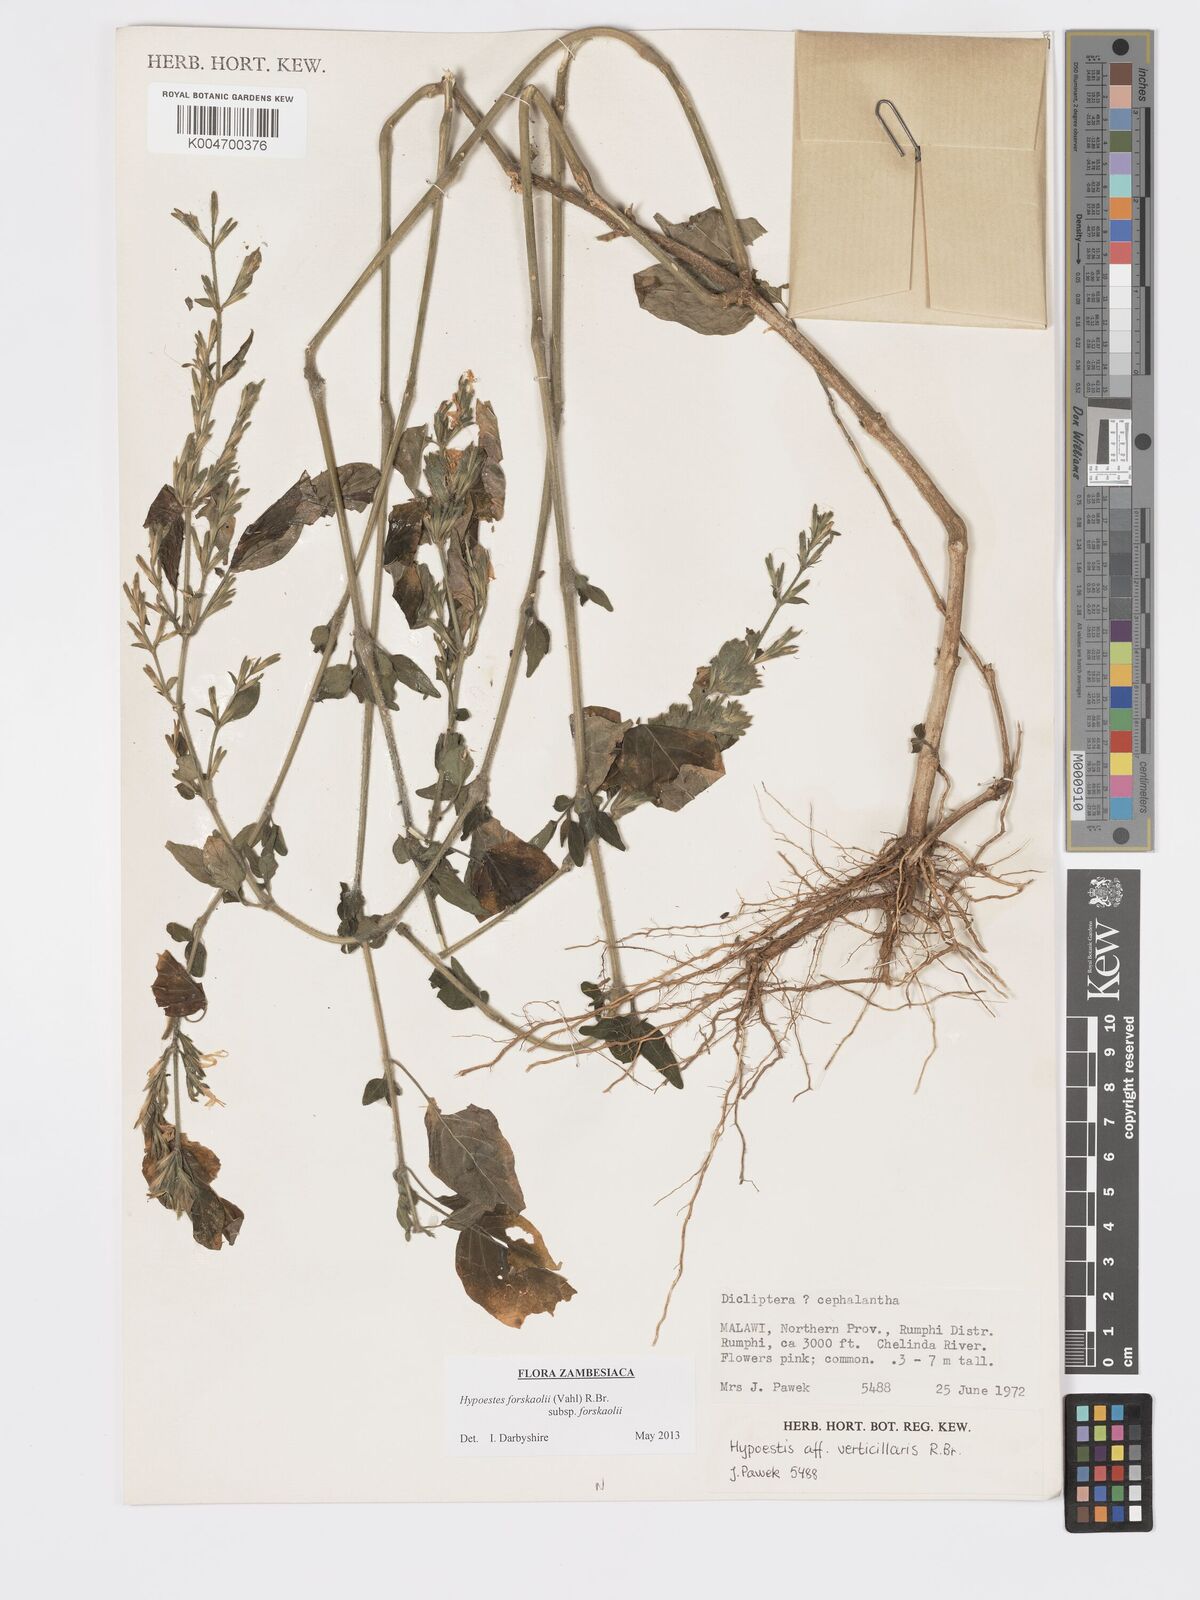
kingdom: Plantae
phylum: Tracheophyta
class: Magnoliopsida
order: Lamiales
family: Acanthaceae
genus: Hypoestes
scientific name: Hypoestes forskaolii
